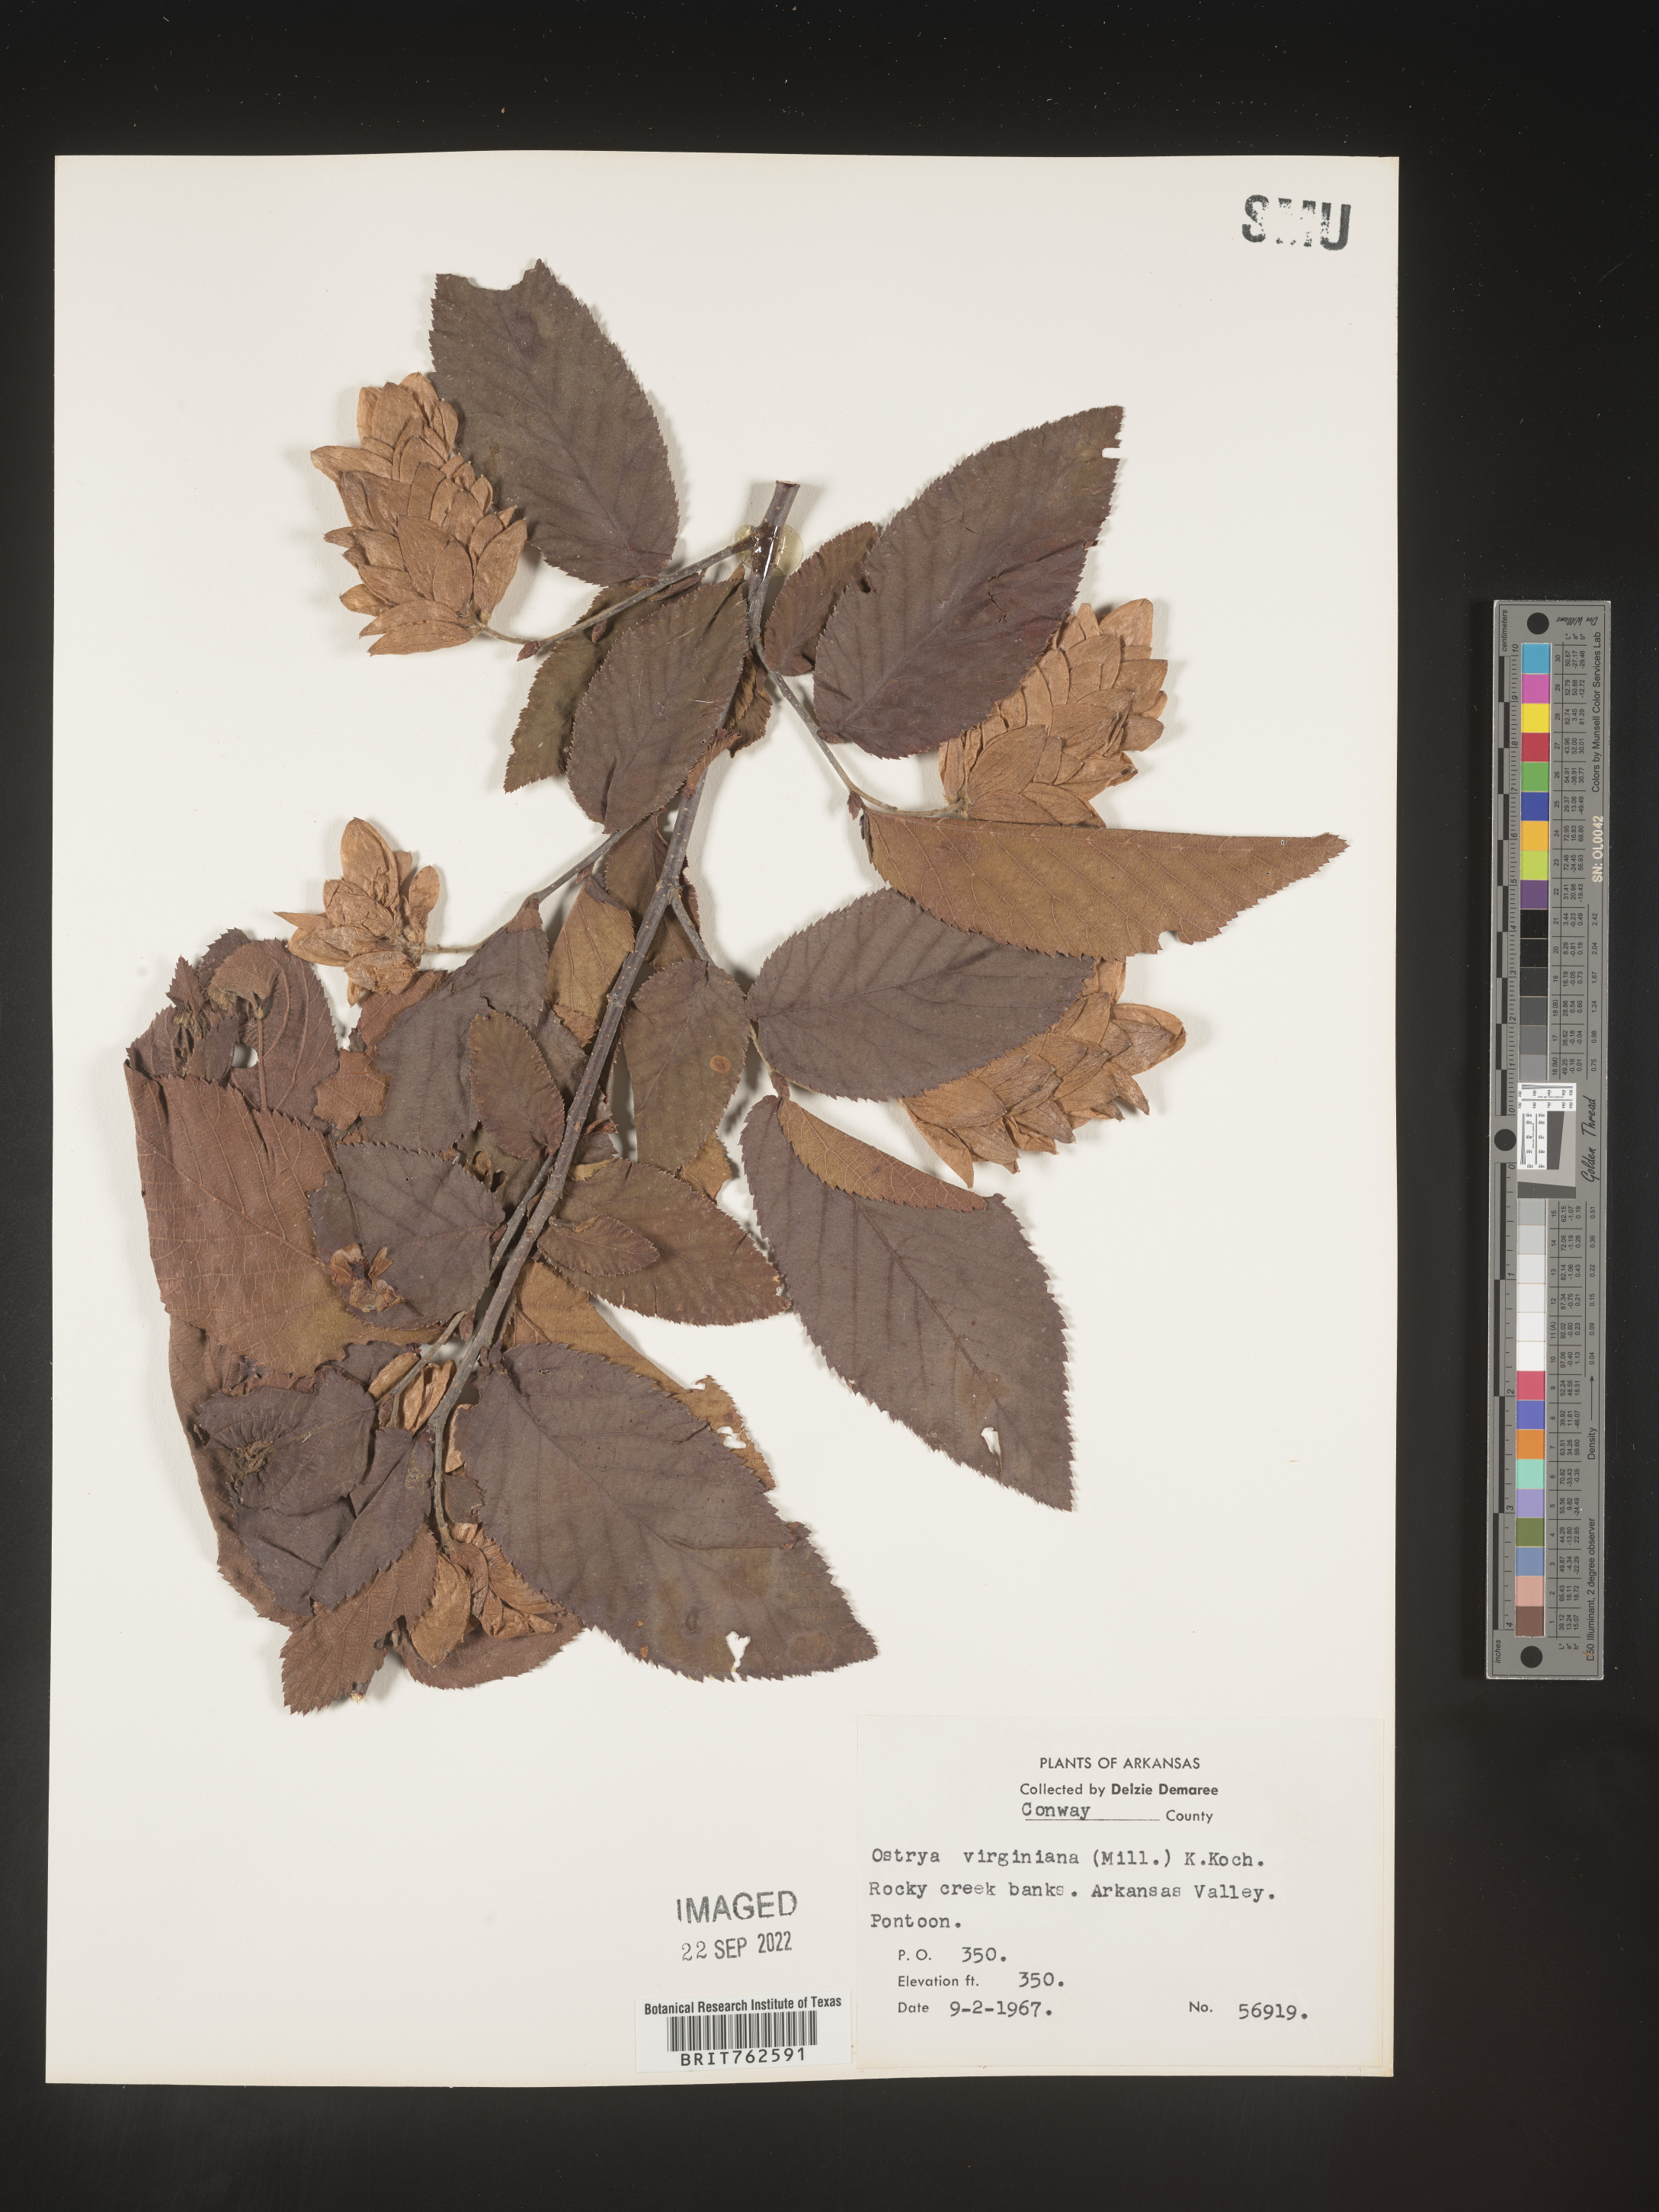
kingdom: Plantae
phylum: Tracheophyta
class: Magnoliopsida
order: Fagales
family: Betulaceae
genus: Ostrya
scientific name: Ostrya virginiana
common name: Ironwood
